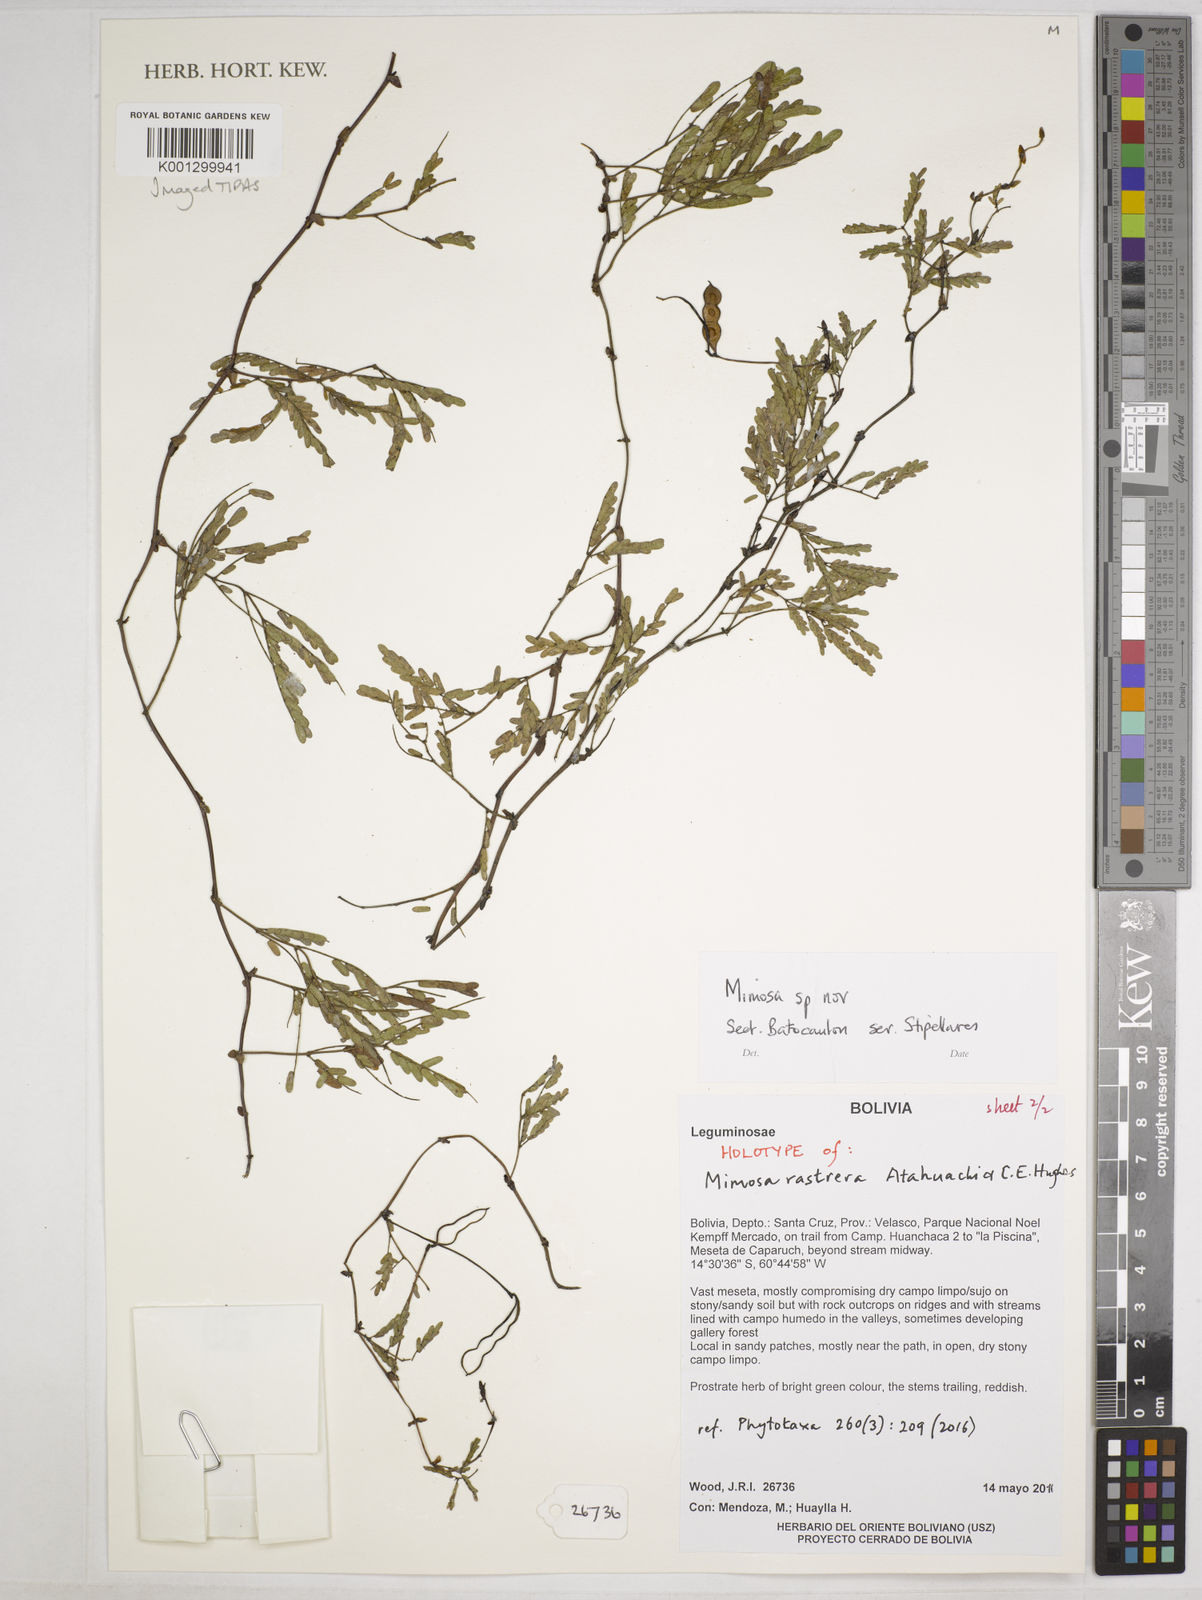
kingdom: Plantae
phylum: Tracheophyta
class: Magnoliopsida
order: Fabales
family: Fabaceae
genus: Mimosa
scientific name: Mimosa rastrera
